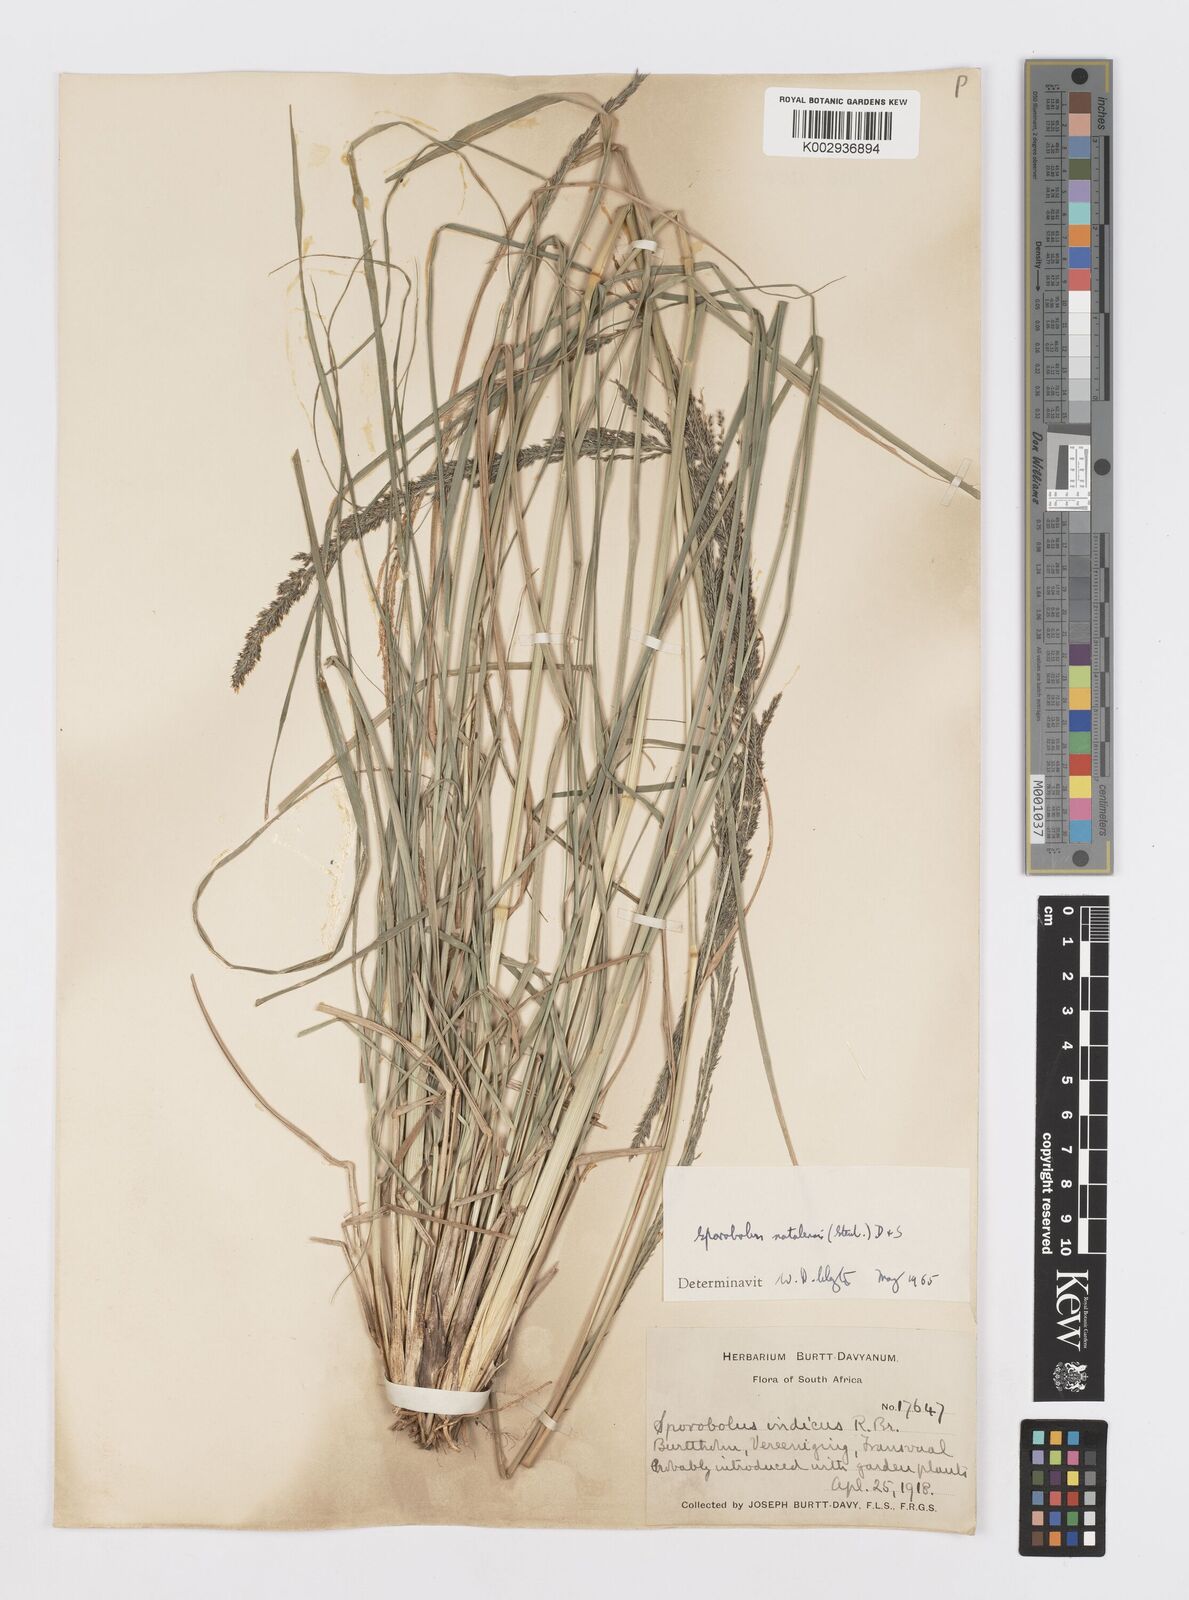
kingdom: Plantae
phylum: Tracheophyta
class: Liliopsida
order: Poales
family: Poaceae
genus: Sporobolus
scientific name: Sporobolus natalensis
